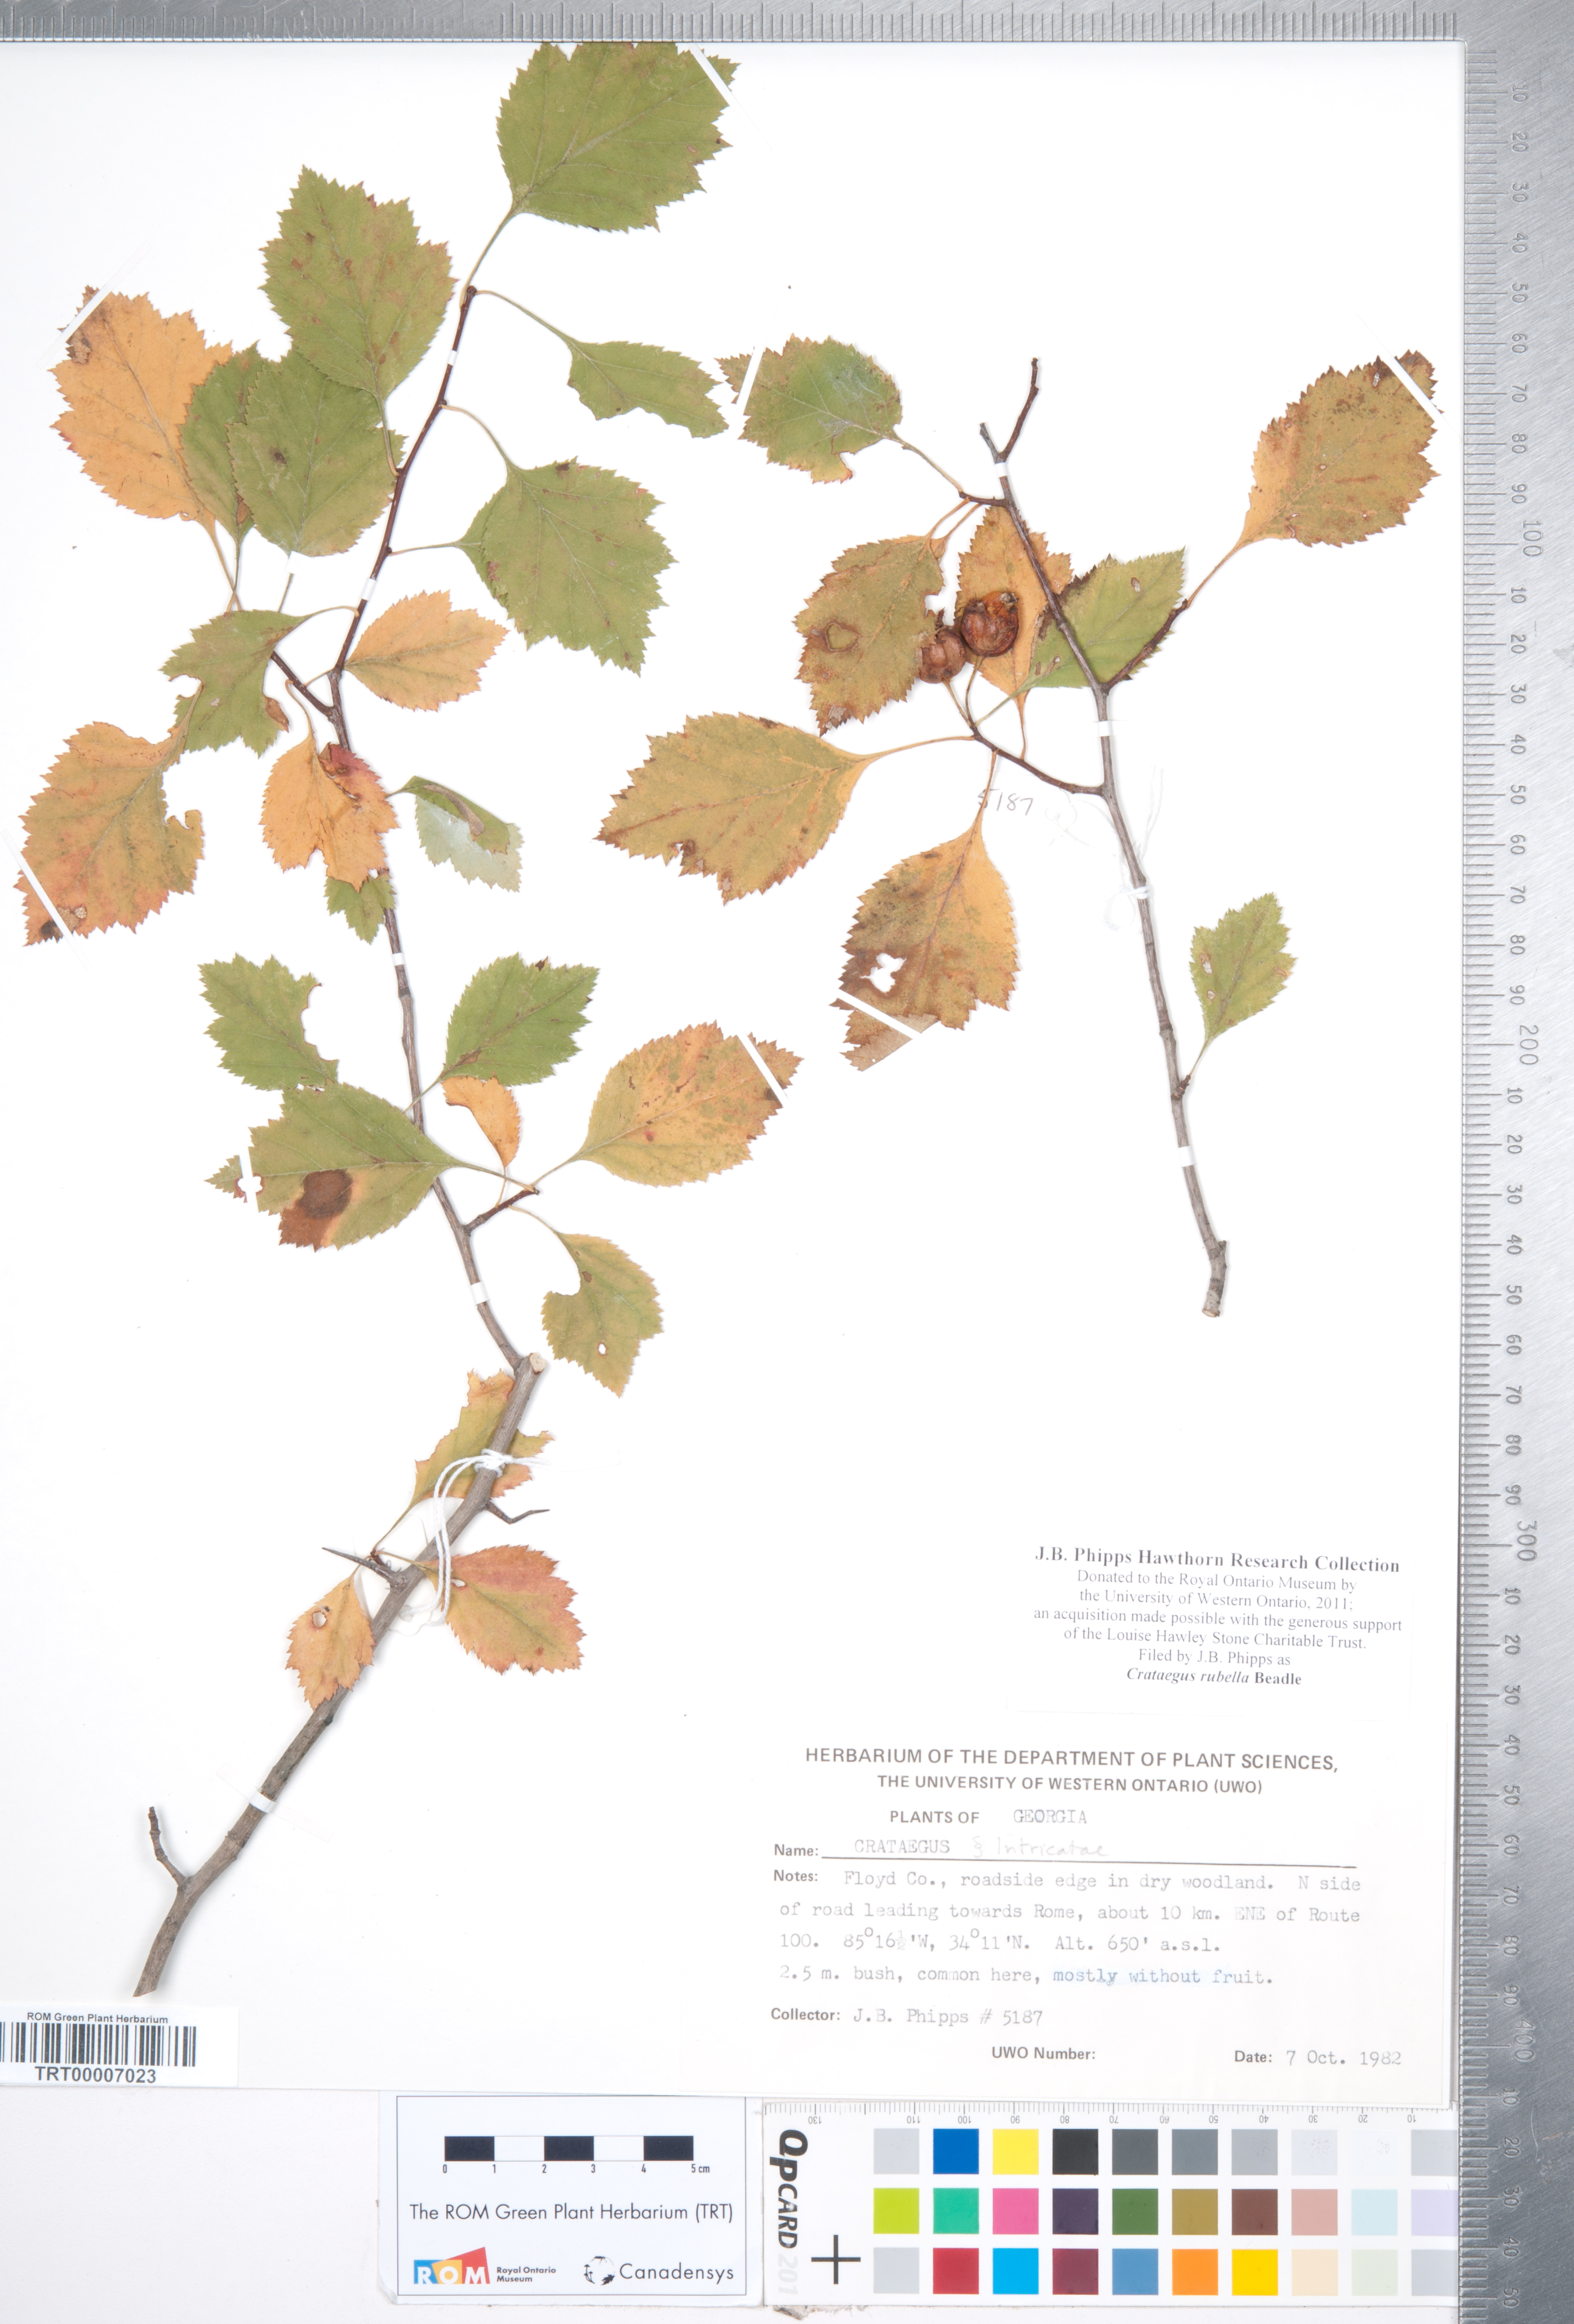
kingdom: Plantae
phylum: Tracheophyta
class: Magnoliopsida
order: Rosales
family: Rosaceae
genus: Crataegus
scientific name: Crataegus intricata
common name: Biltmore hawthorn
